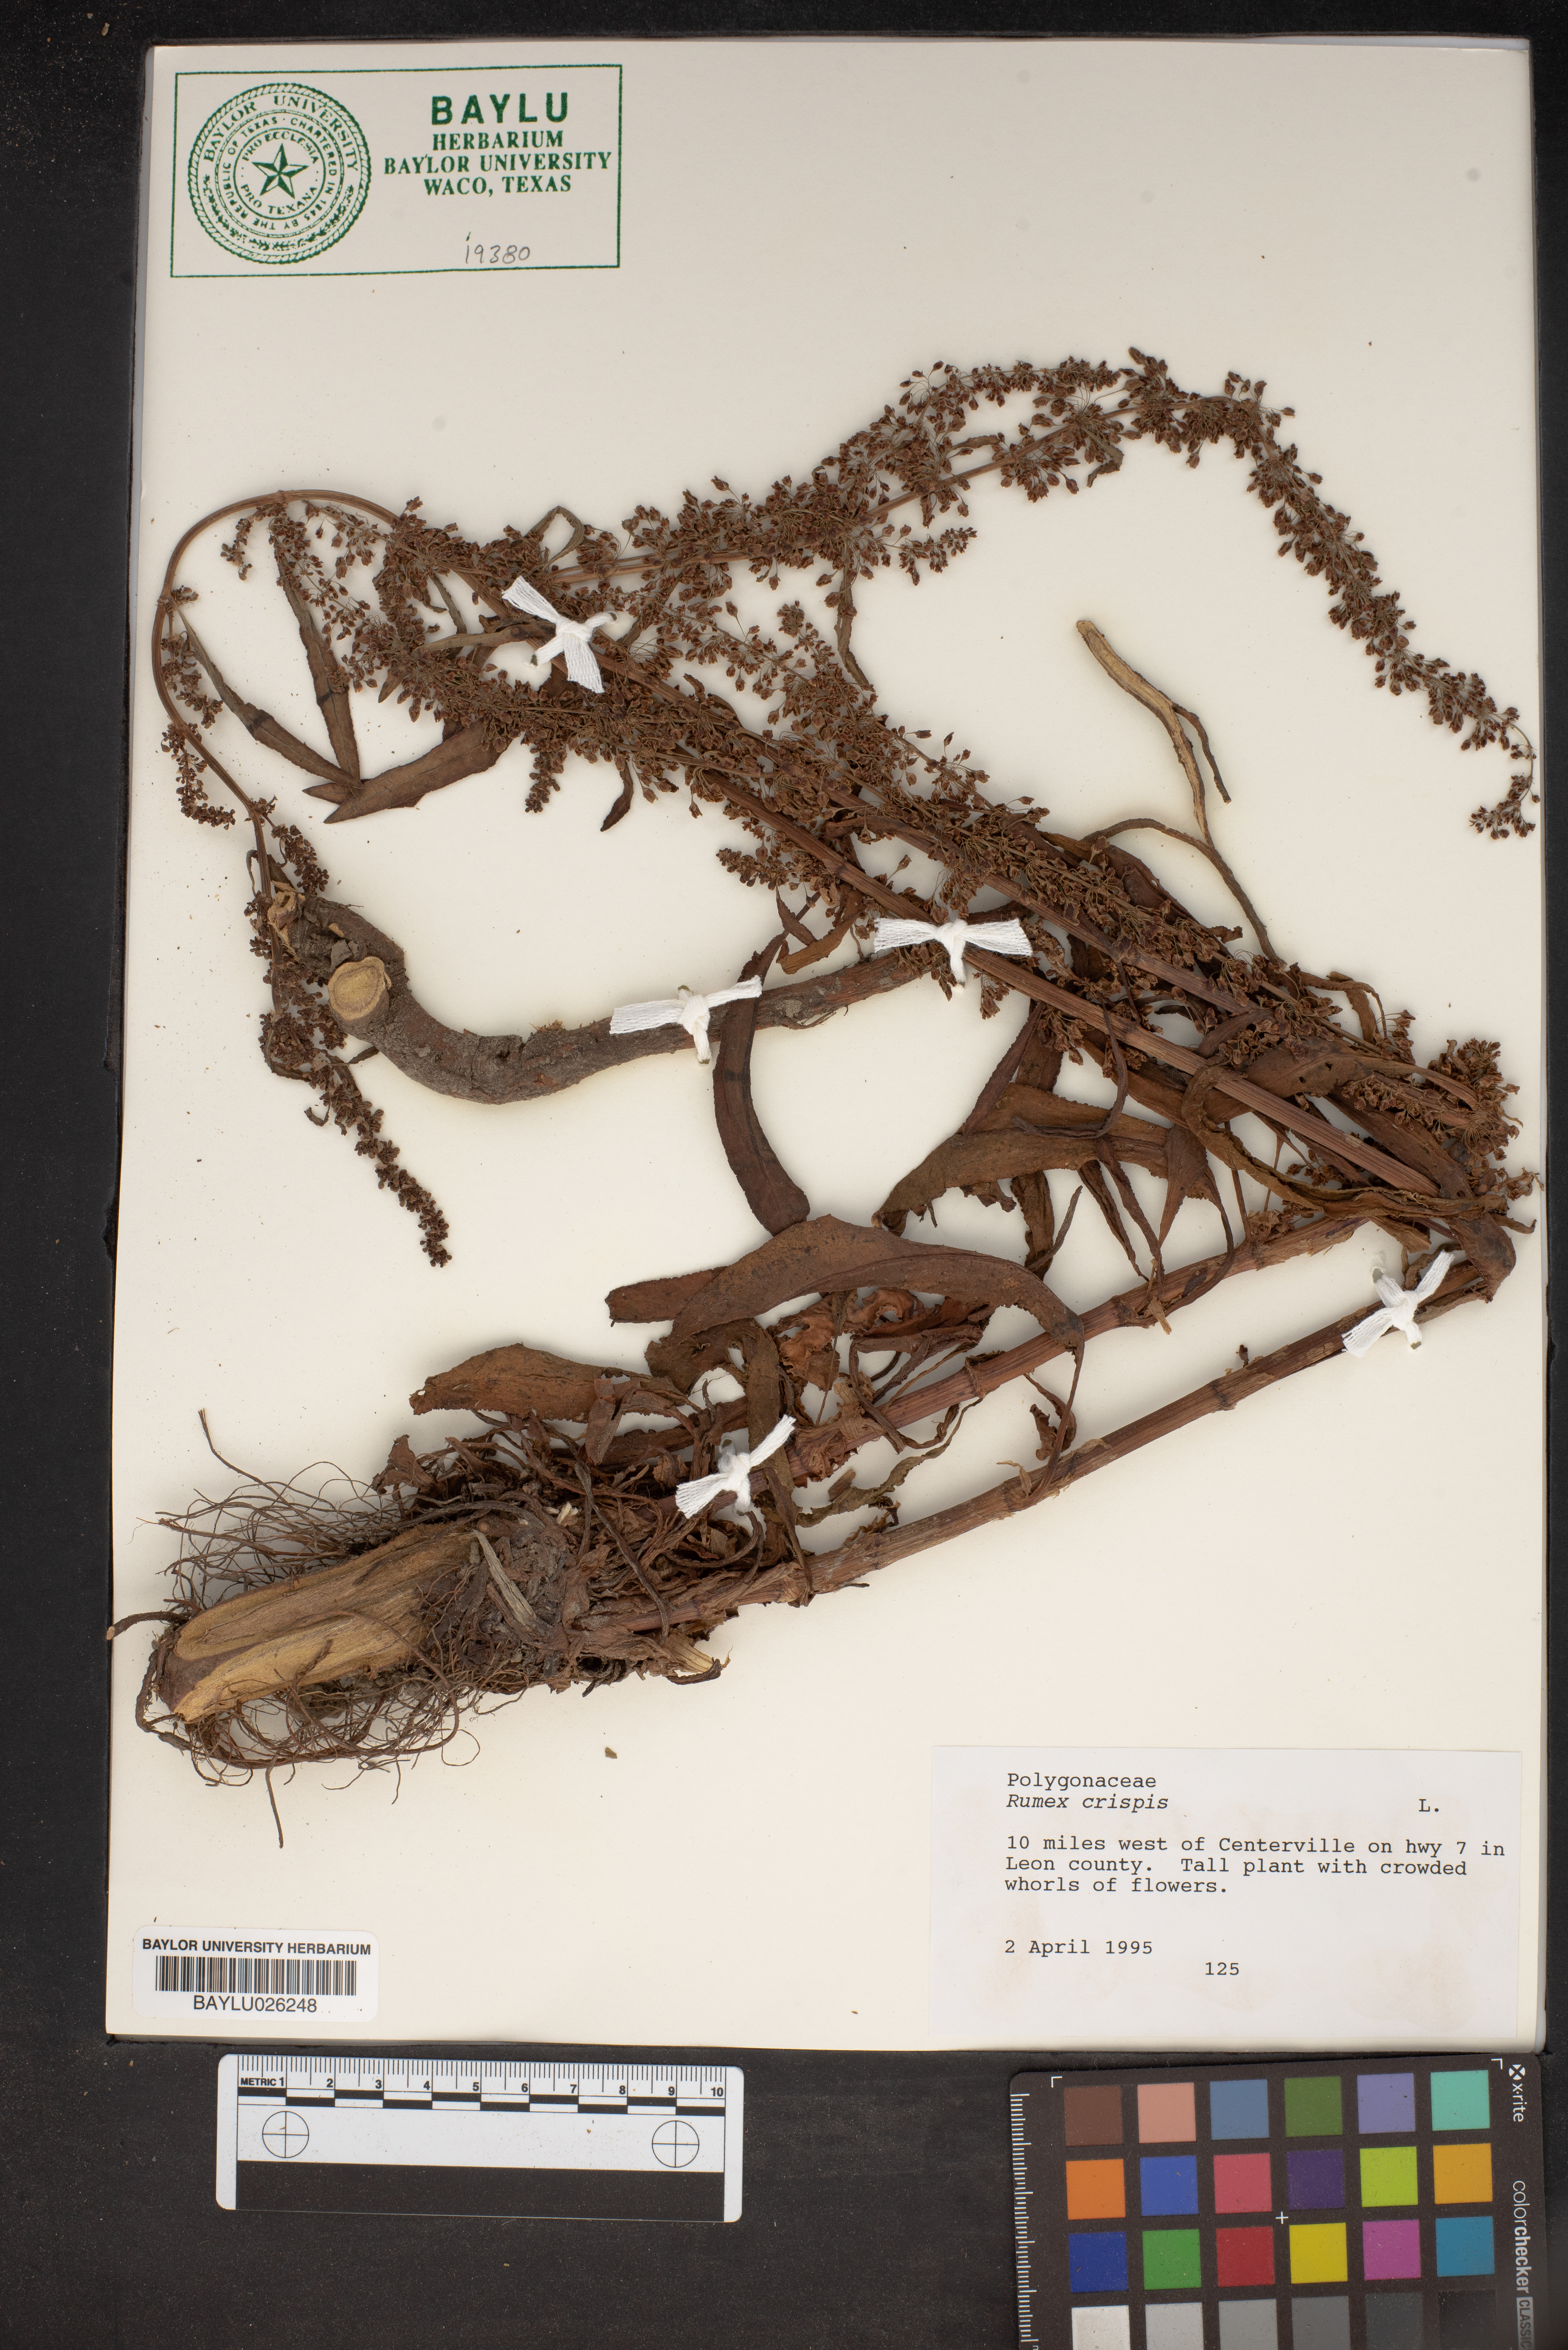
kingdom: Plantae
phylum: Tracheophyta
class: Magnoliopsida
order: Caryophyllales
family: Polygonaceae
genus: Rumex
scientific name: Rumex crispus
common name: Curled dock
